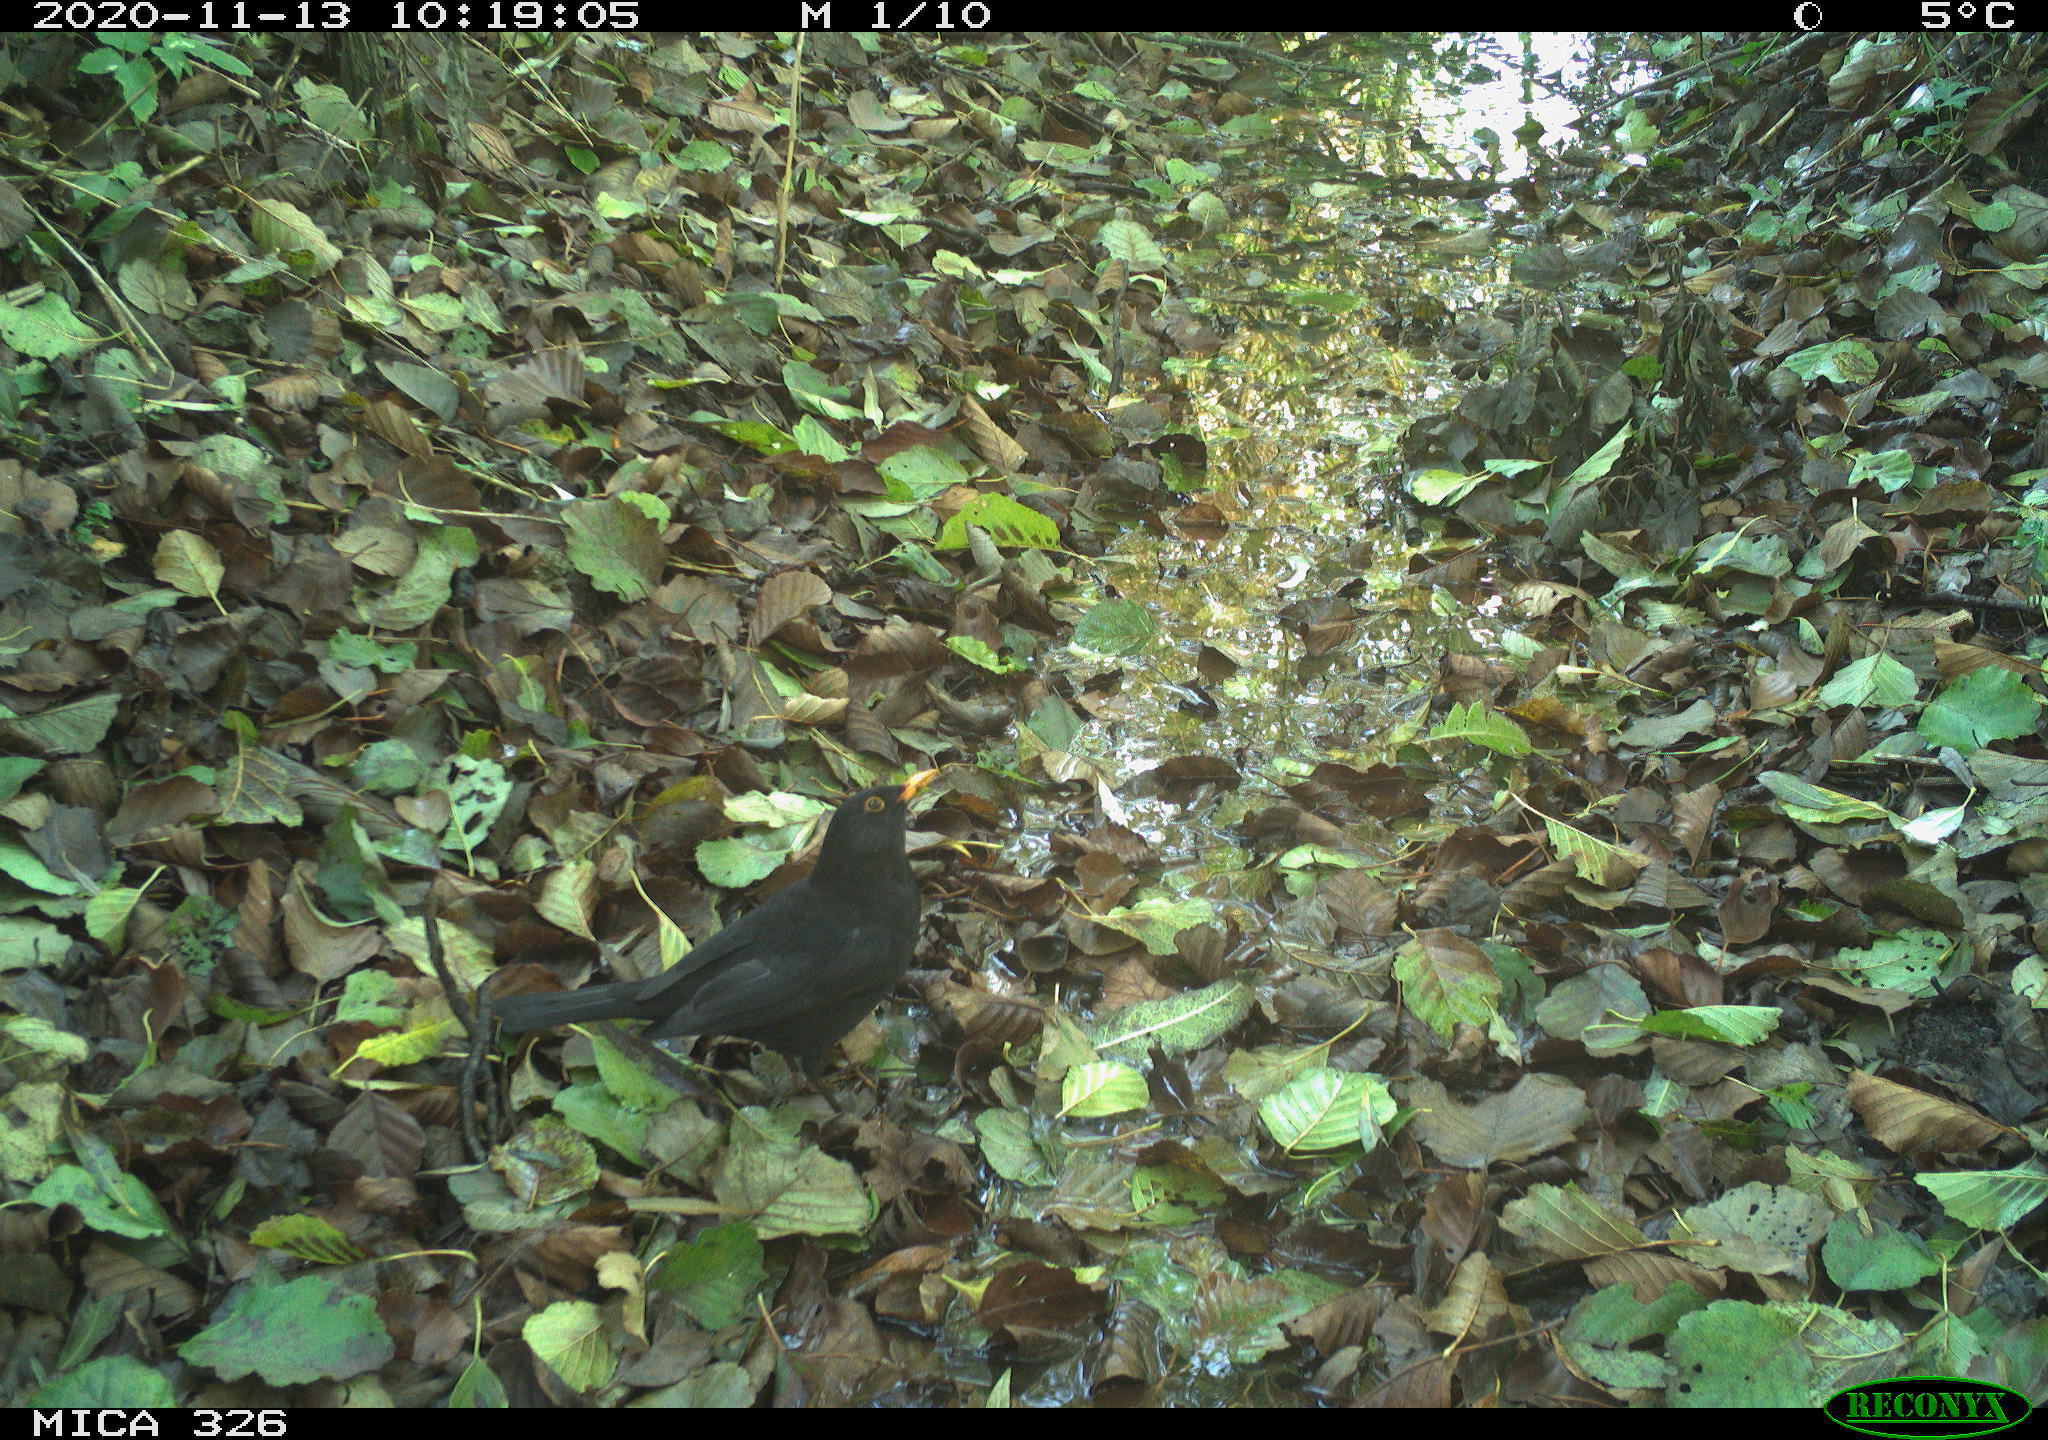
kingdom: Animalia
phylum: Chordata
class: Aves
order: Passeriformes
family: Turdidae
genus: Turdus
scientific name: Turdus merula
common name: Common blackbird
